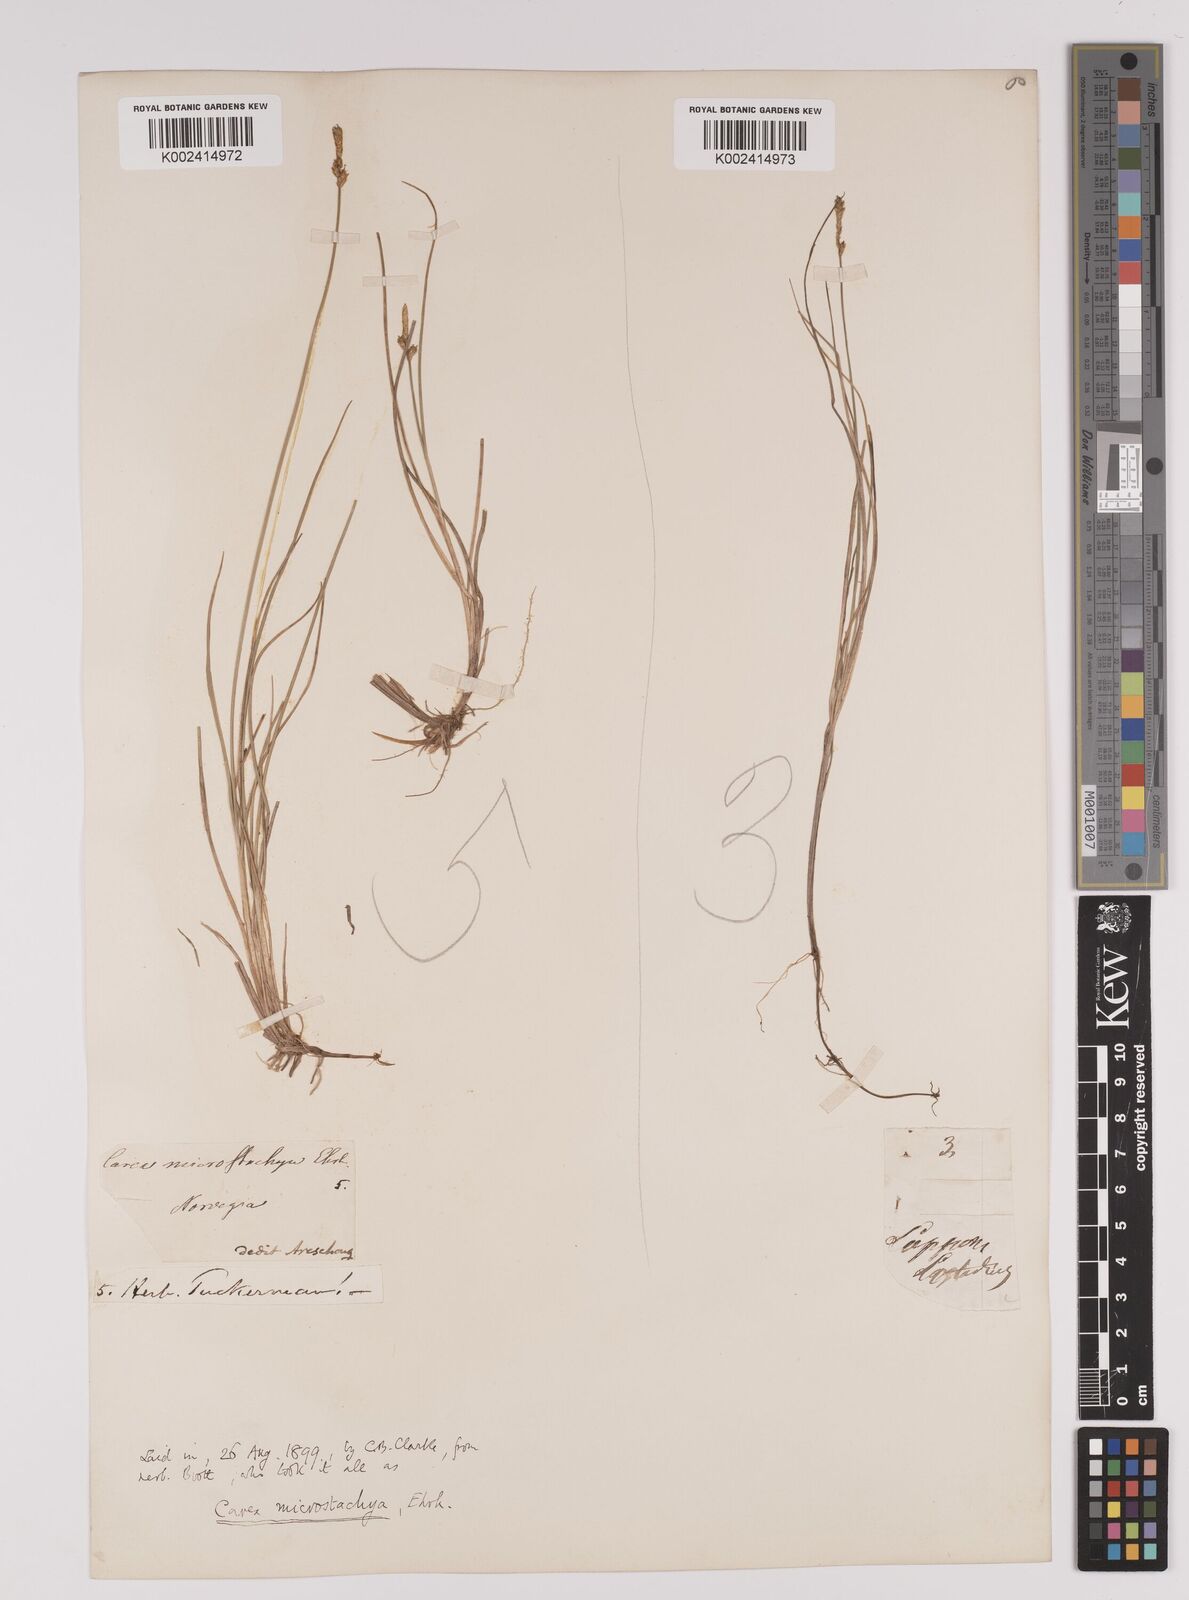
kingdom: Plantae
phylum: Tracheophyta
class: Liliopsida
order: Poales
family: Cyperaceae
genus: Carex
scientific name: Carex dioica
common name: Dioecious sedge
